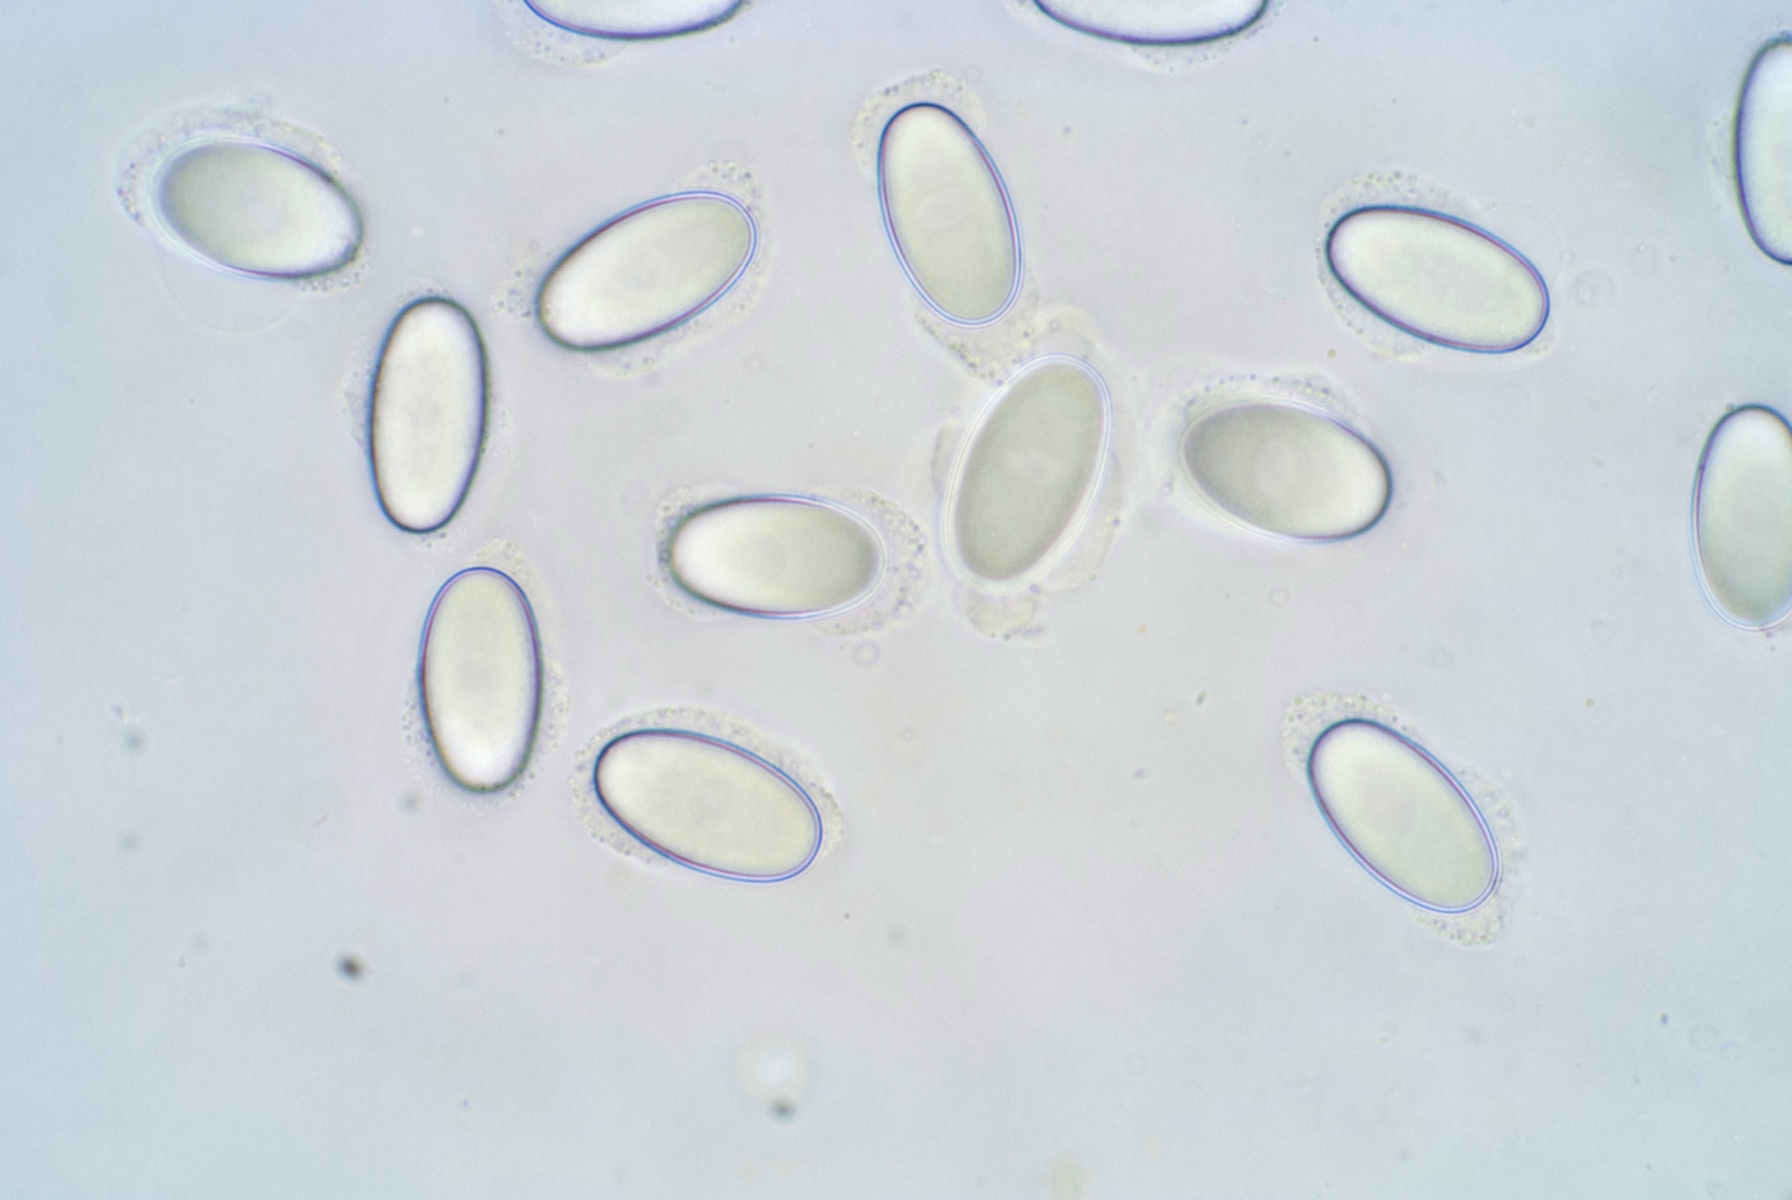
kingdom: Fungi
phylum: Ascomycota
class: Pezizomycetes
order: Pezizales
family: Ascodesmidaceae
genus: Lasiobolus
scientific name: Lasiobolus papillatus
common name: enradet øjebæger
